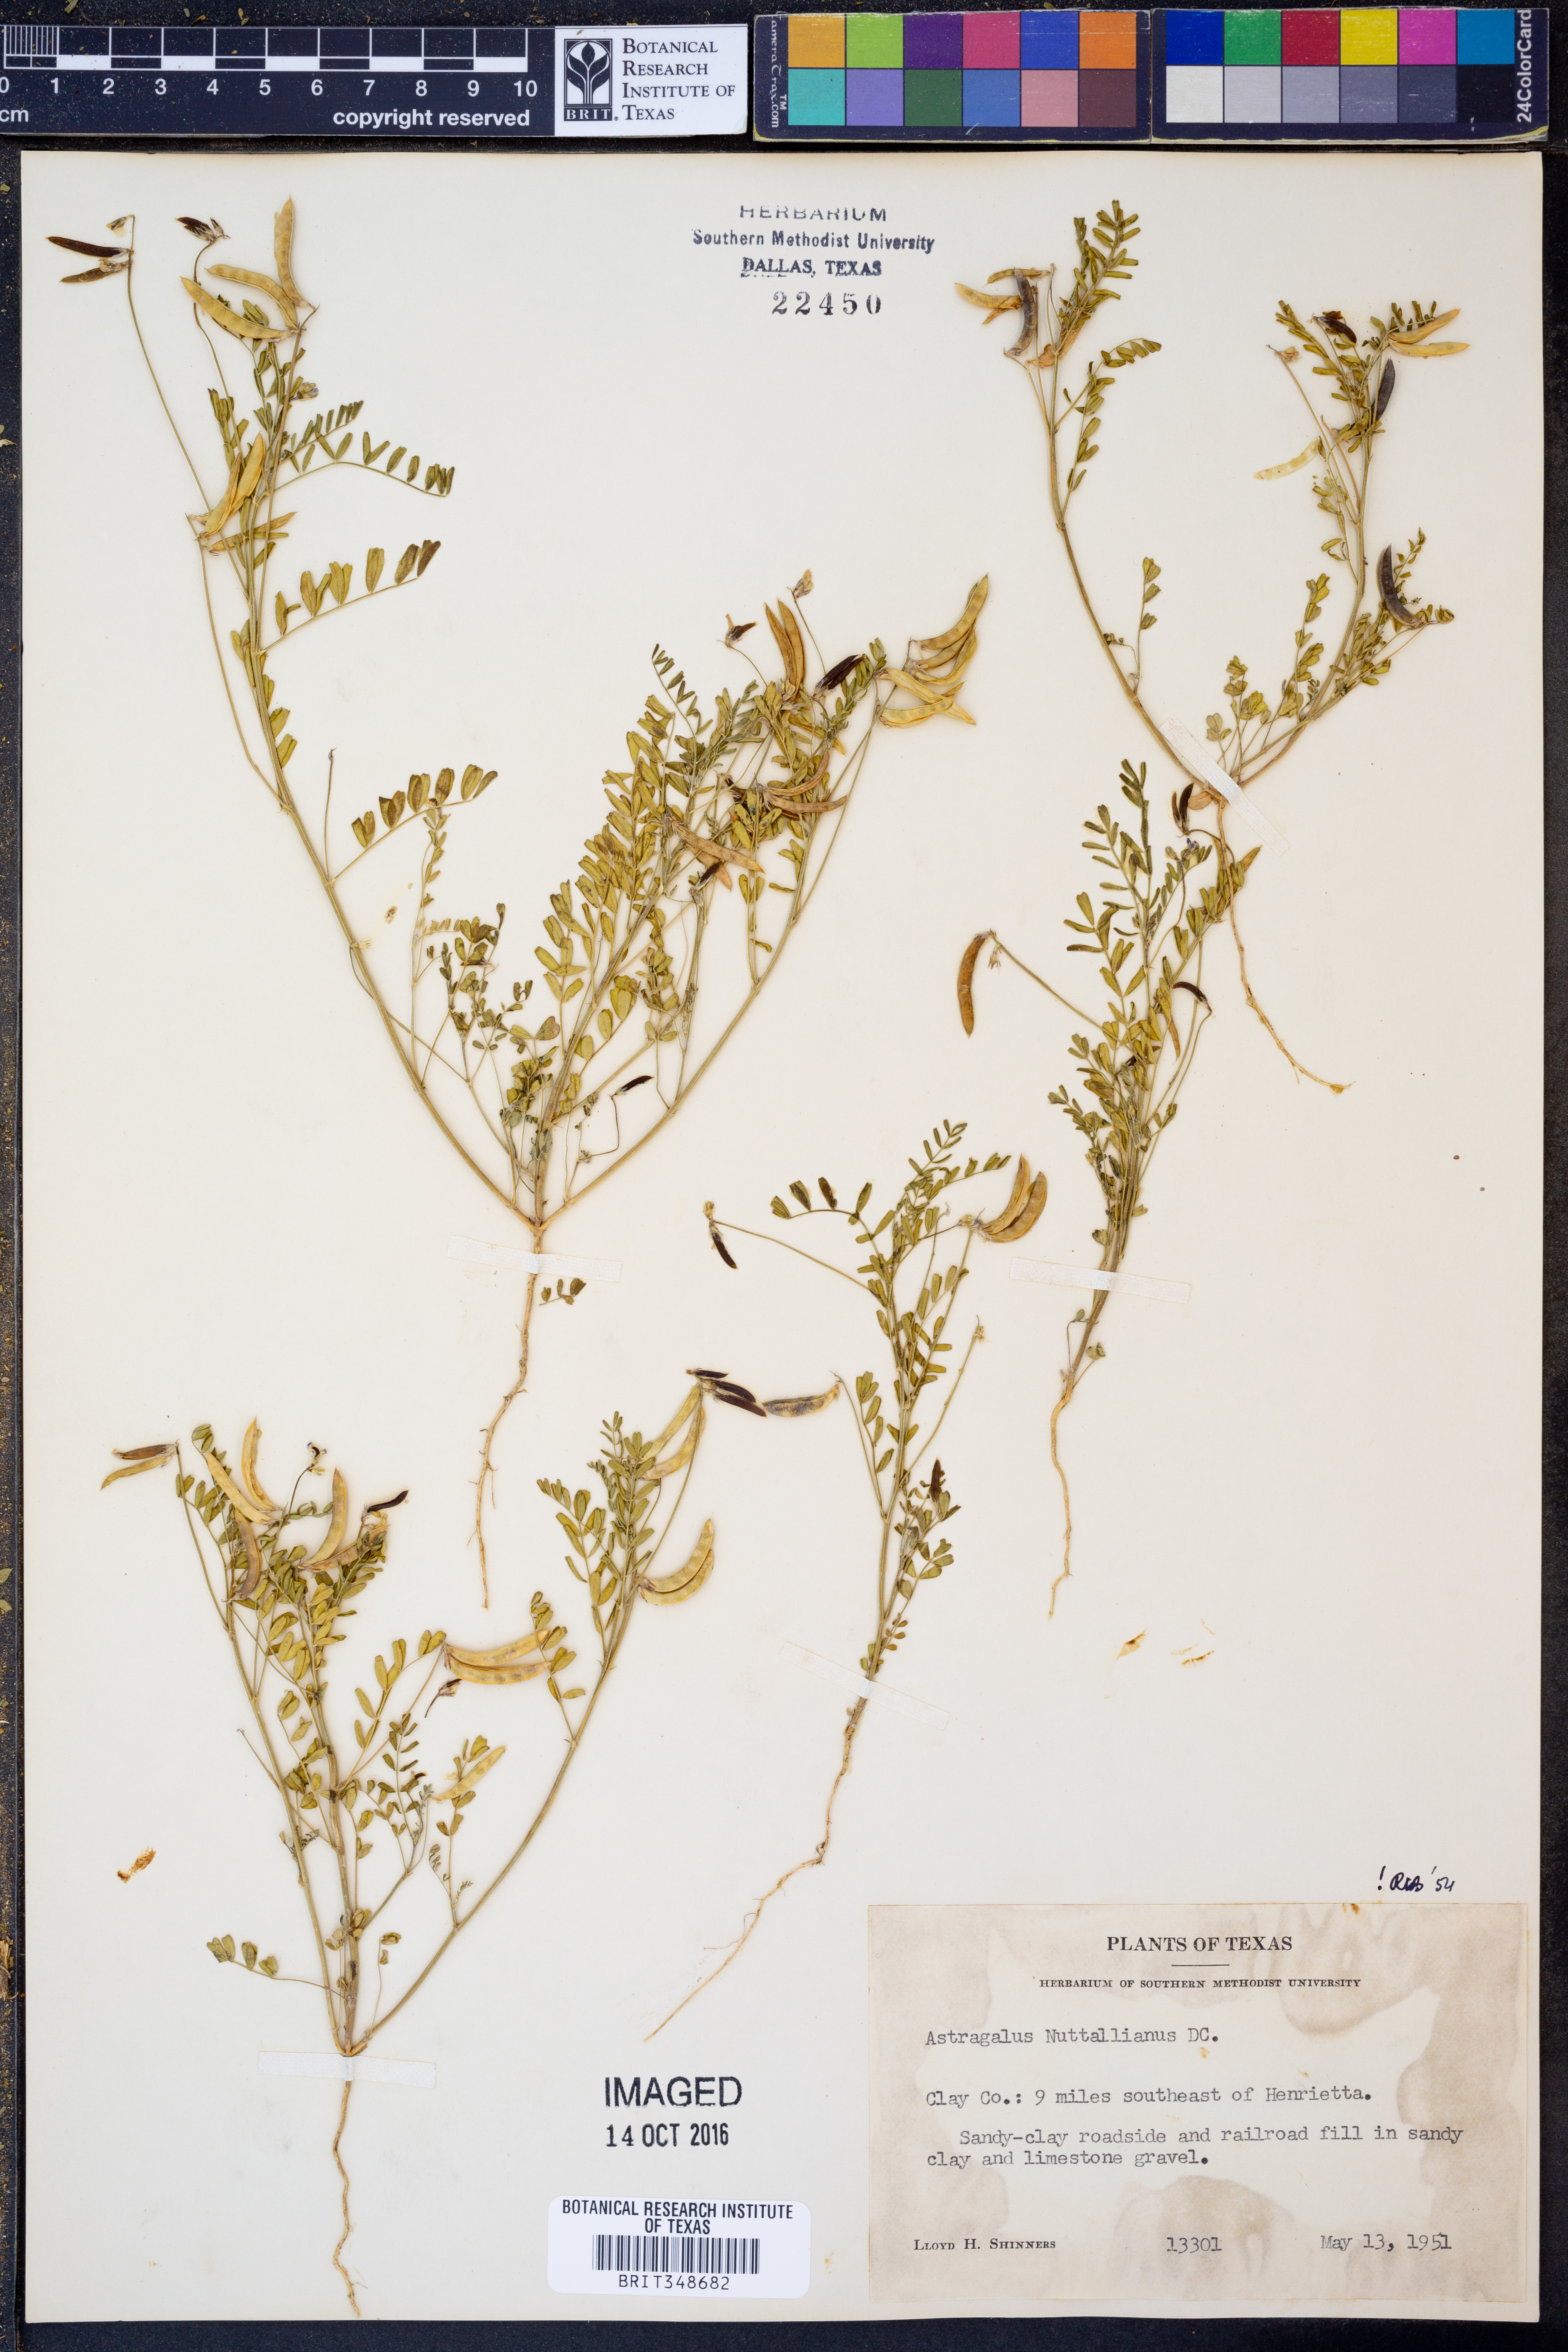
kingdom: Plantae
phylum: Tracheophyta
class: Magnoliopsida
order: Fabales
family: Fabaceae
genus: Astragalus
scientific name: Astragalus nuttallianus
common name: Smallflowered milkvetch
